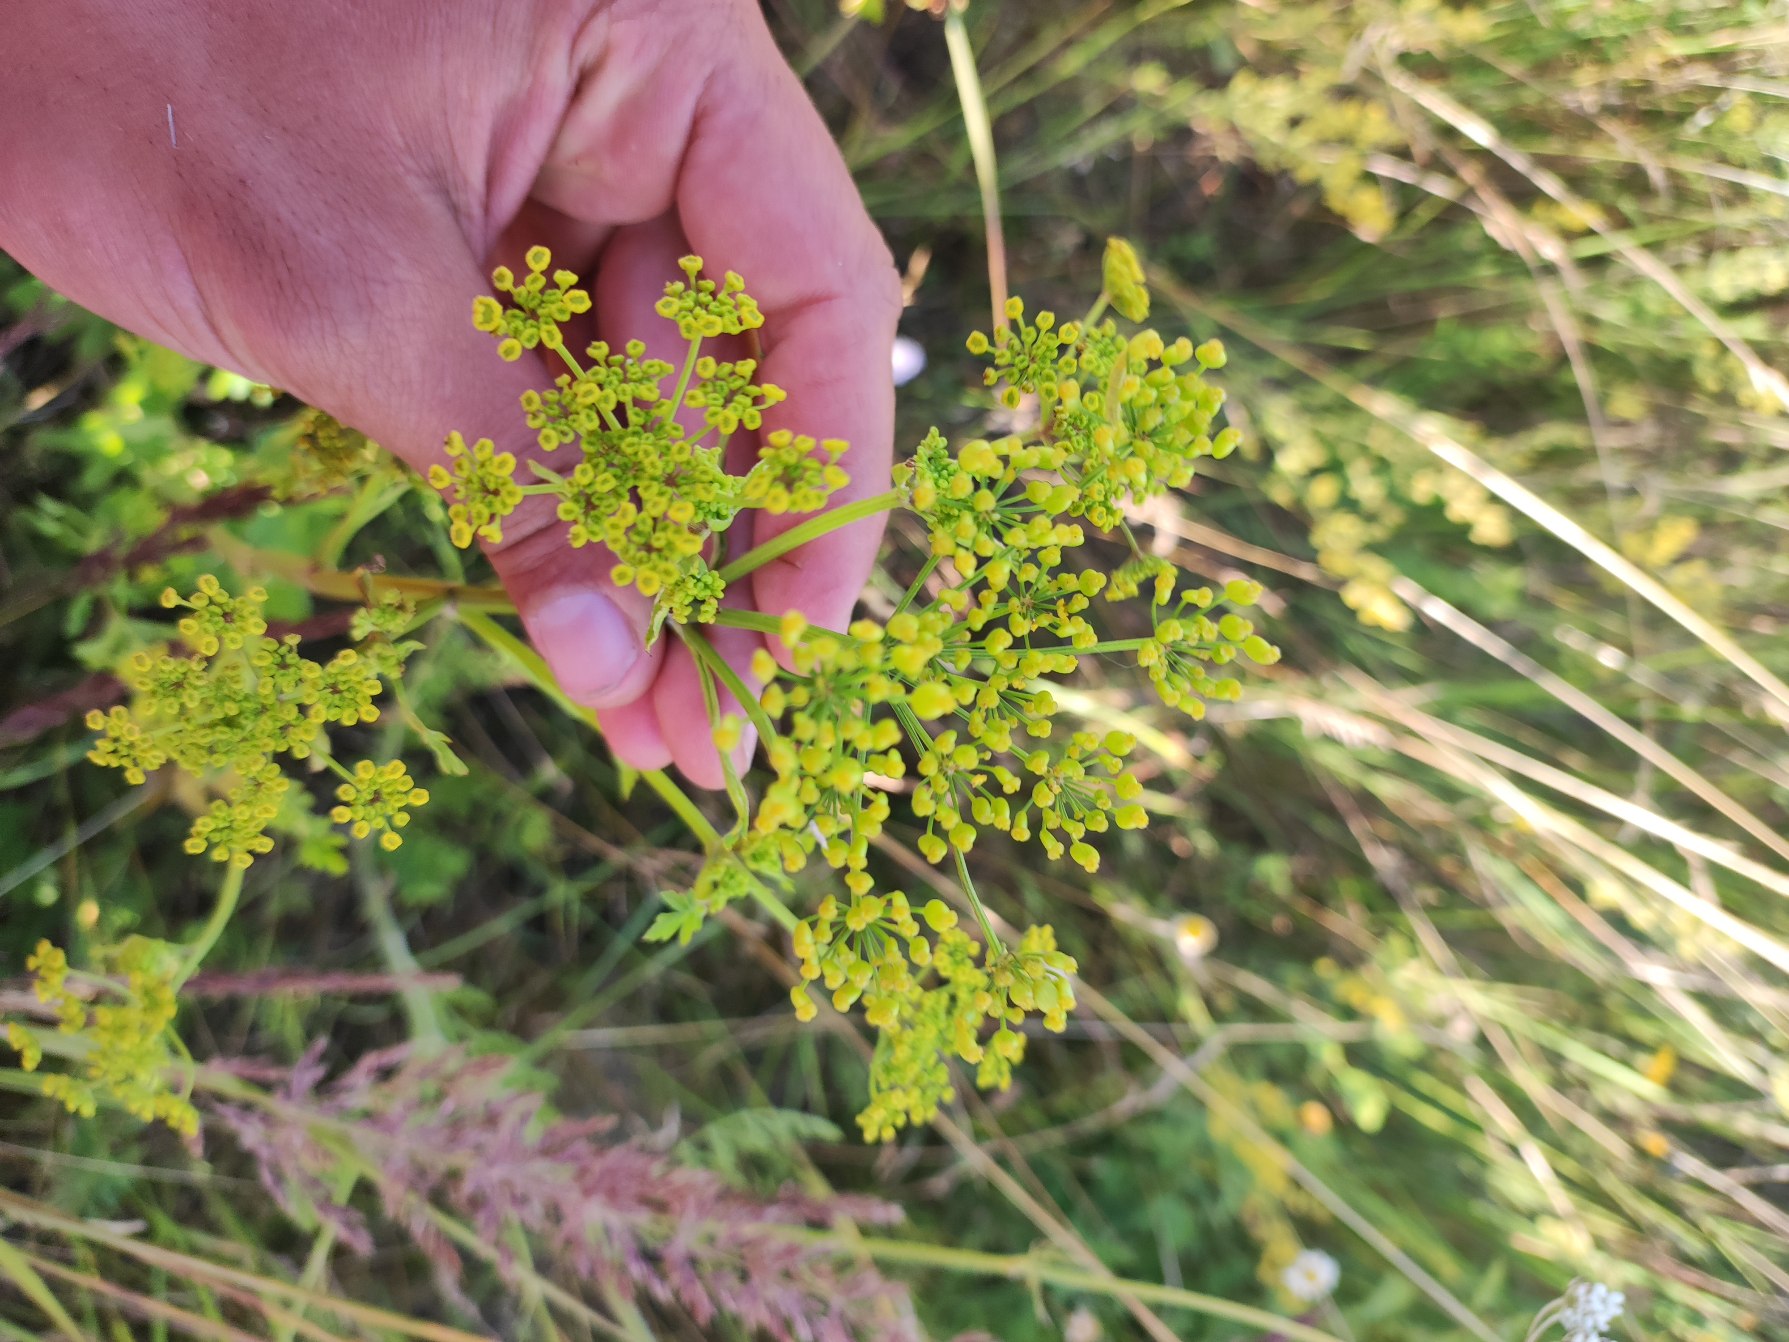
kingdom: Plantae
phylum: Tracheophyta
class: Magnoliopsida
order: Apiales
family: Apiaceae
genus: Pastinaca
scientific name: Pastinaca sativa
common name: Pastinak
